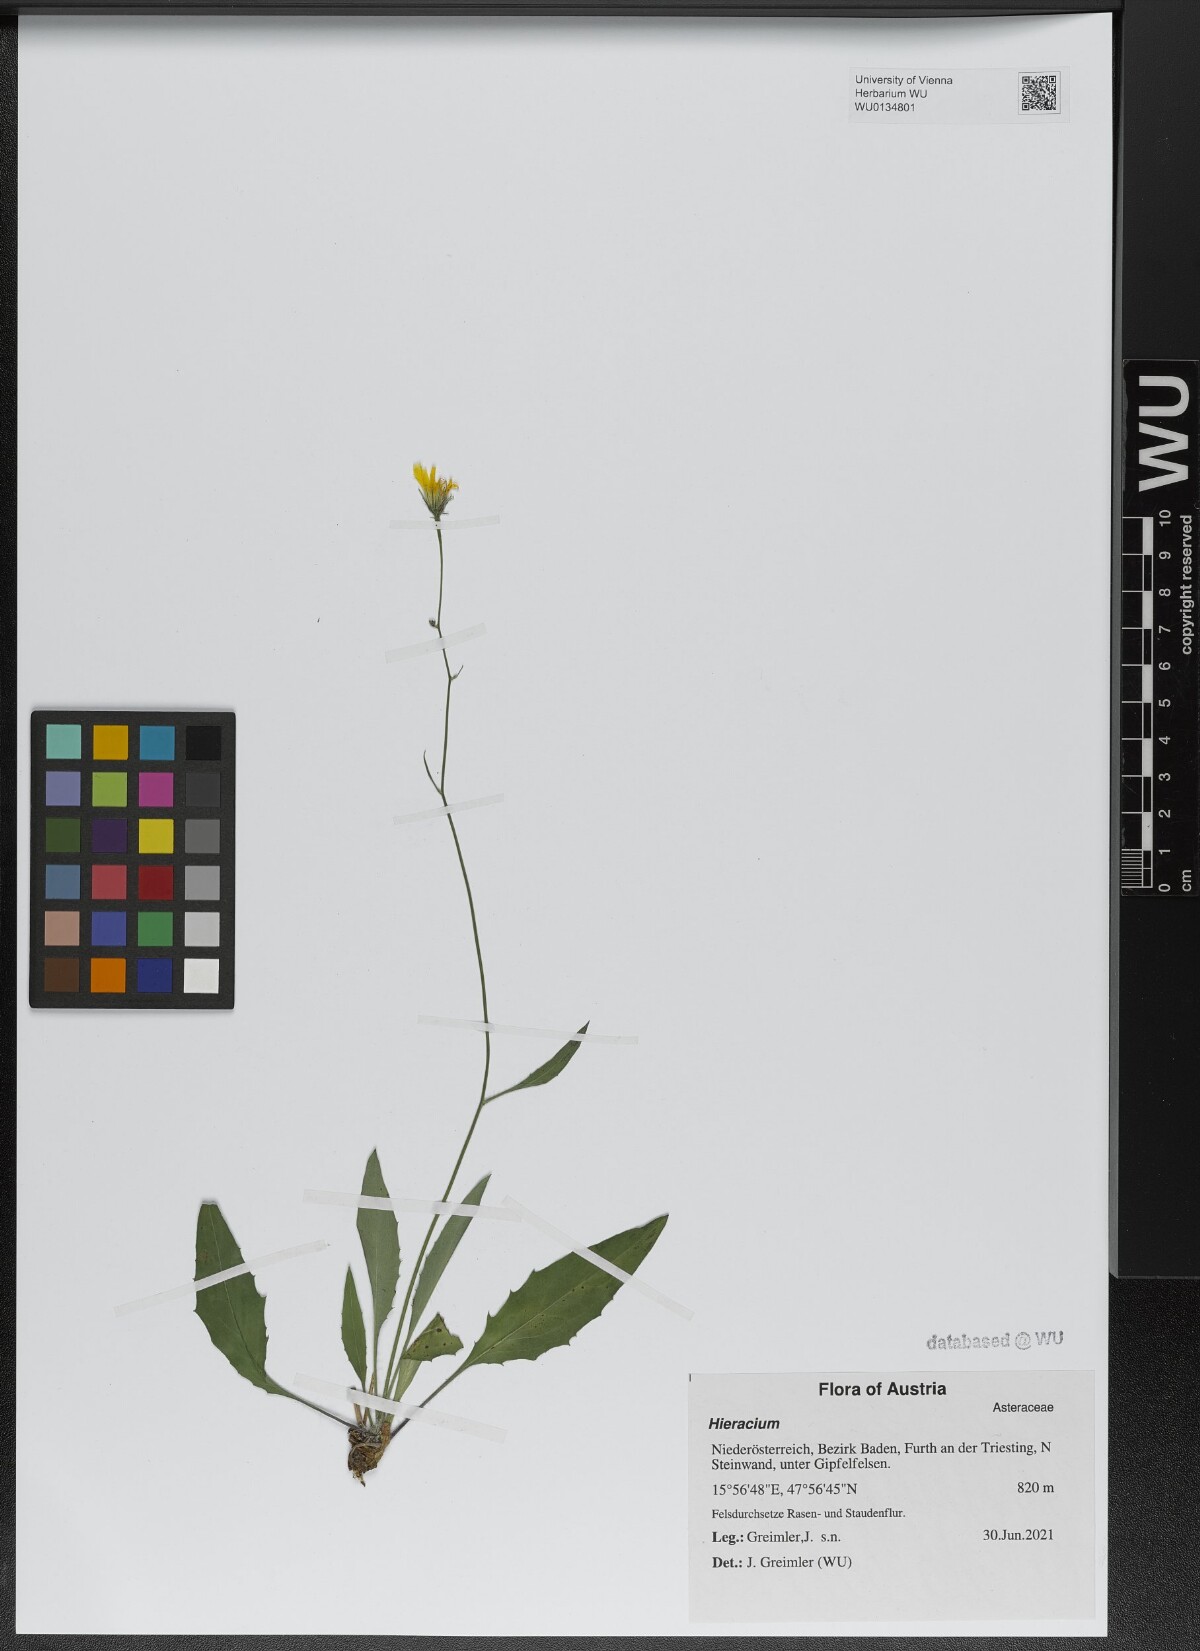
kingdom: Plantae
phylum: Tracheophyta
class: Magnoliopsida
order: Asterales
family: Asteraceae
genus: Hieracium
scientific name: Hieracium dollineri
